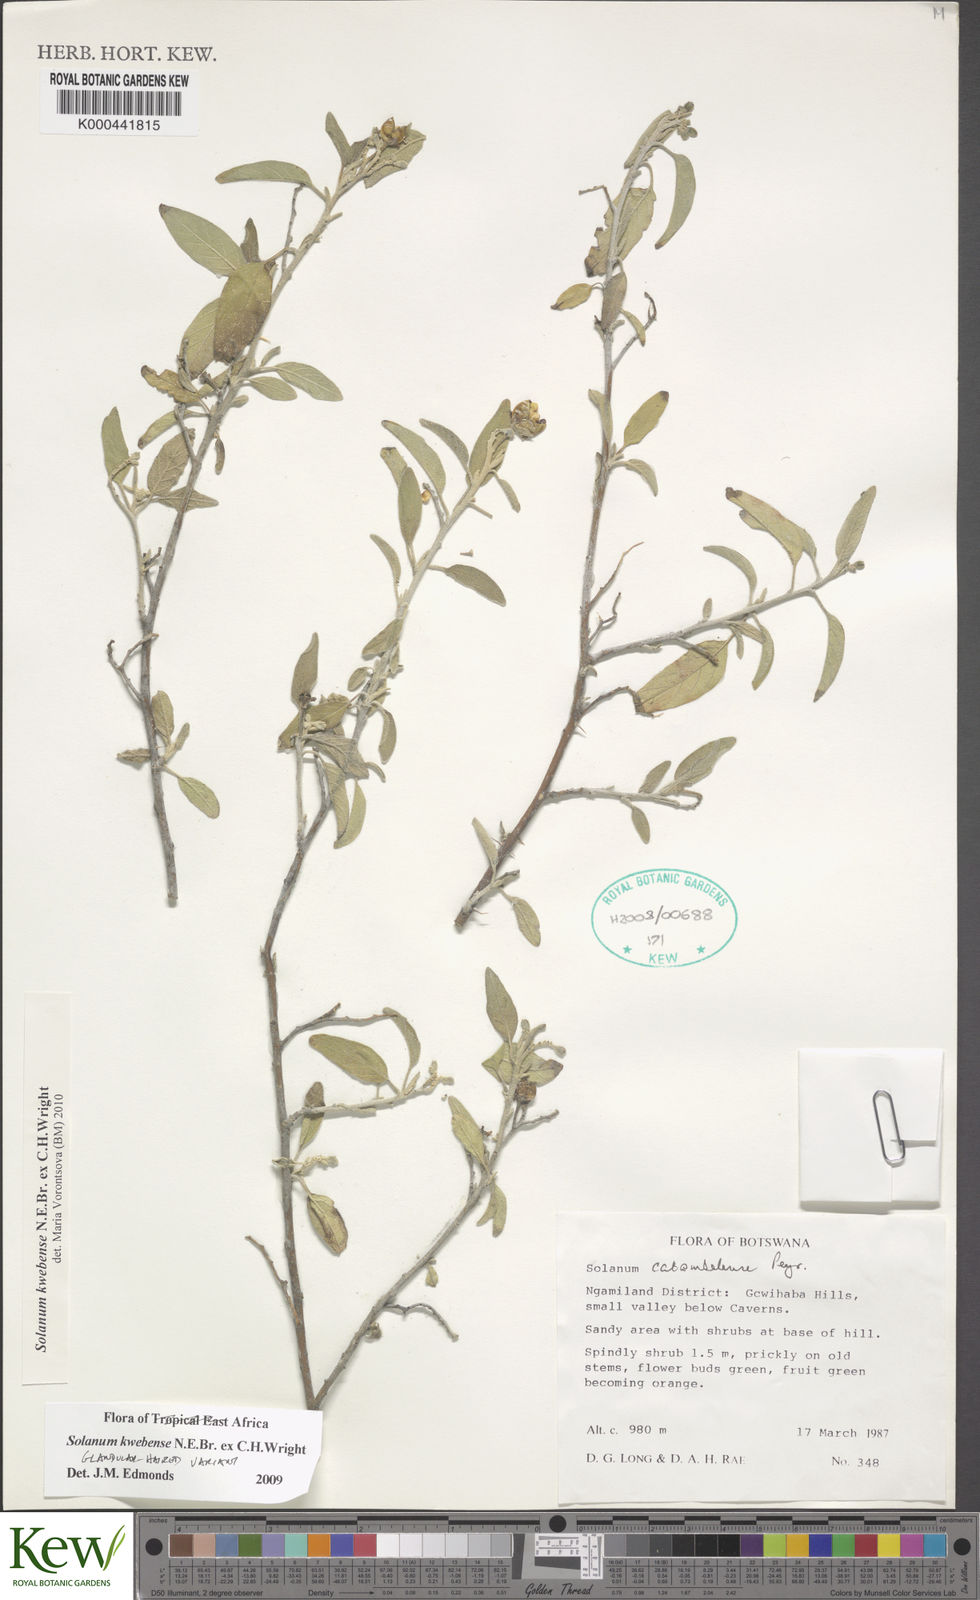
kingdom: Plantae
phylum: Tracheophyta
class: Magnoliopsida
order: Solanales
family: Solanaceae
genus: Solanum
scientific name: Solanum tettense
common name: Mozambique bitter apple
